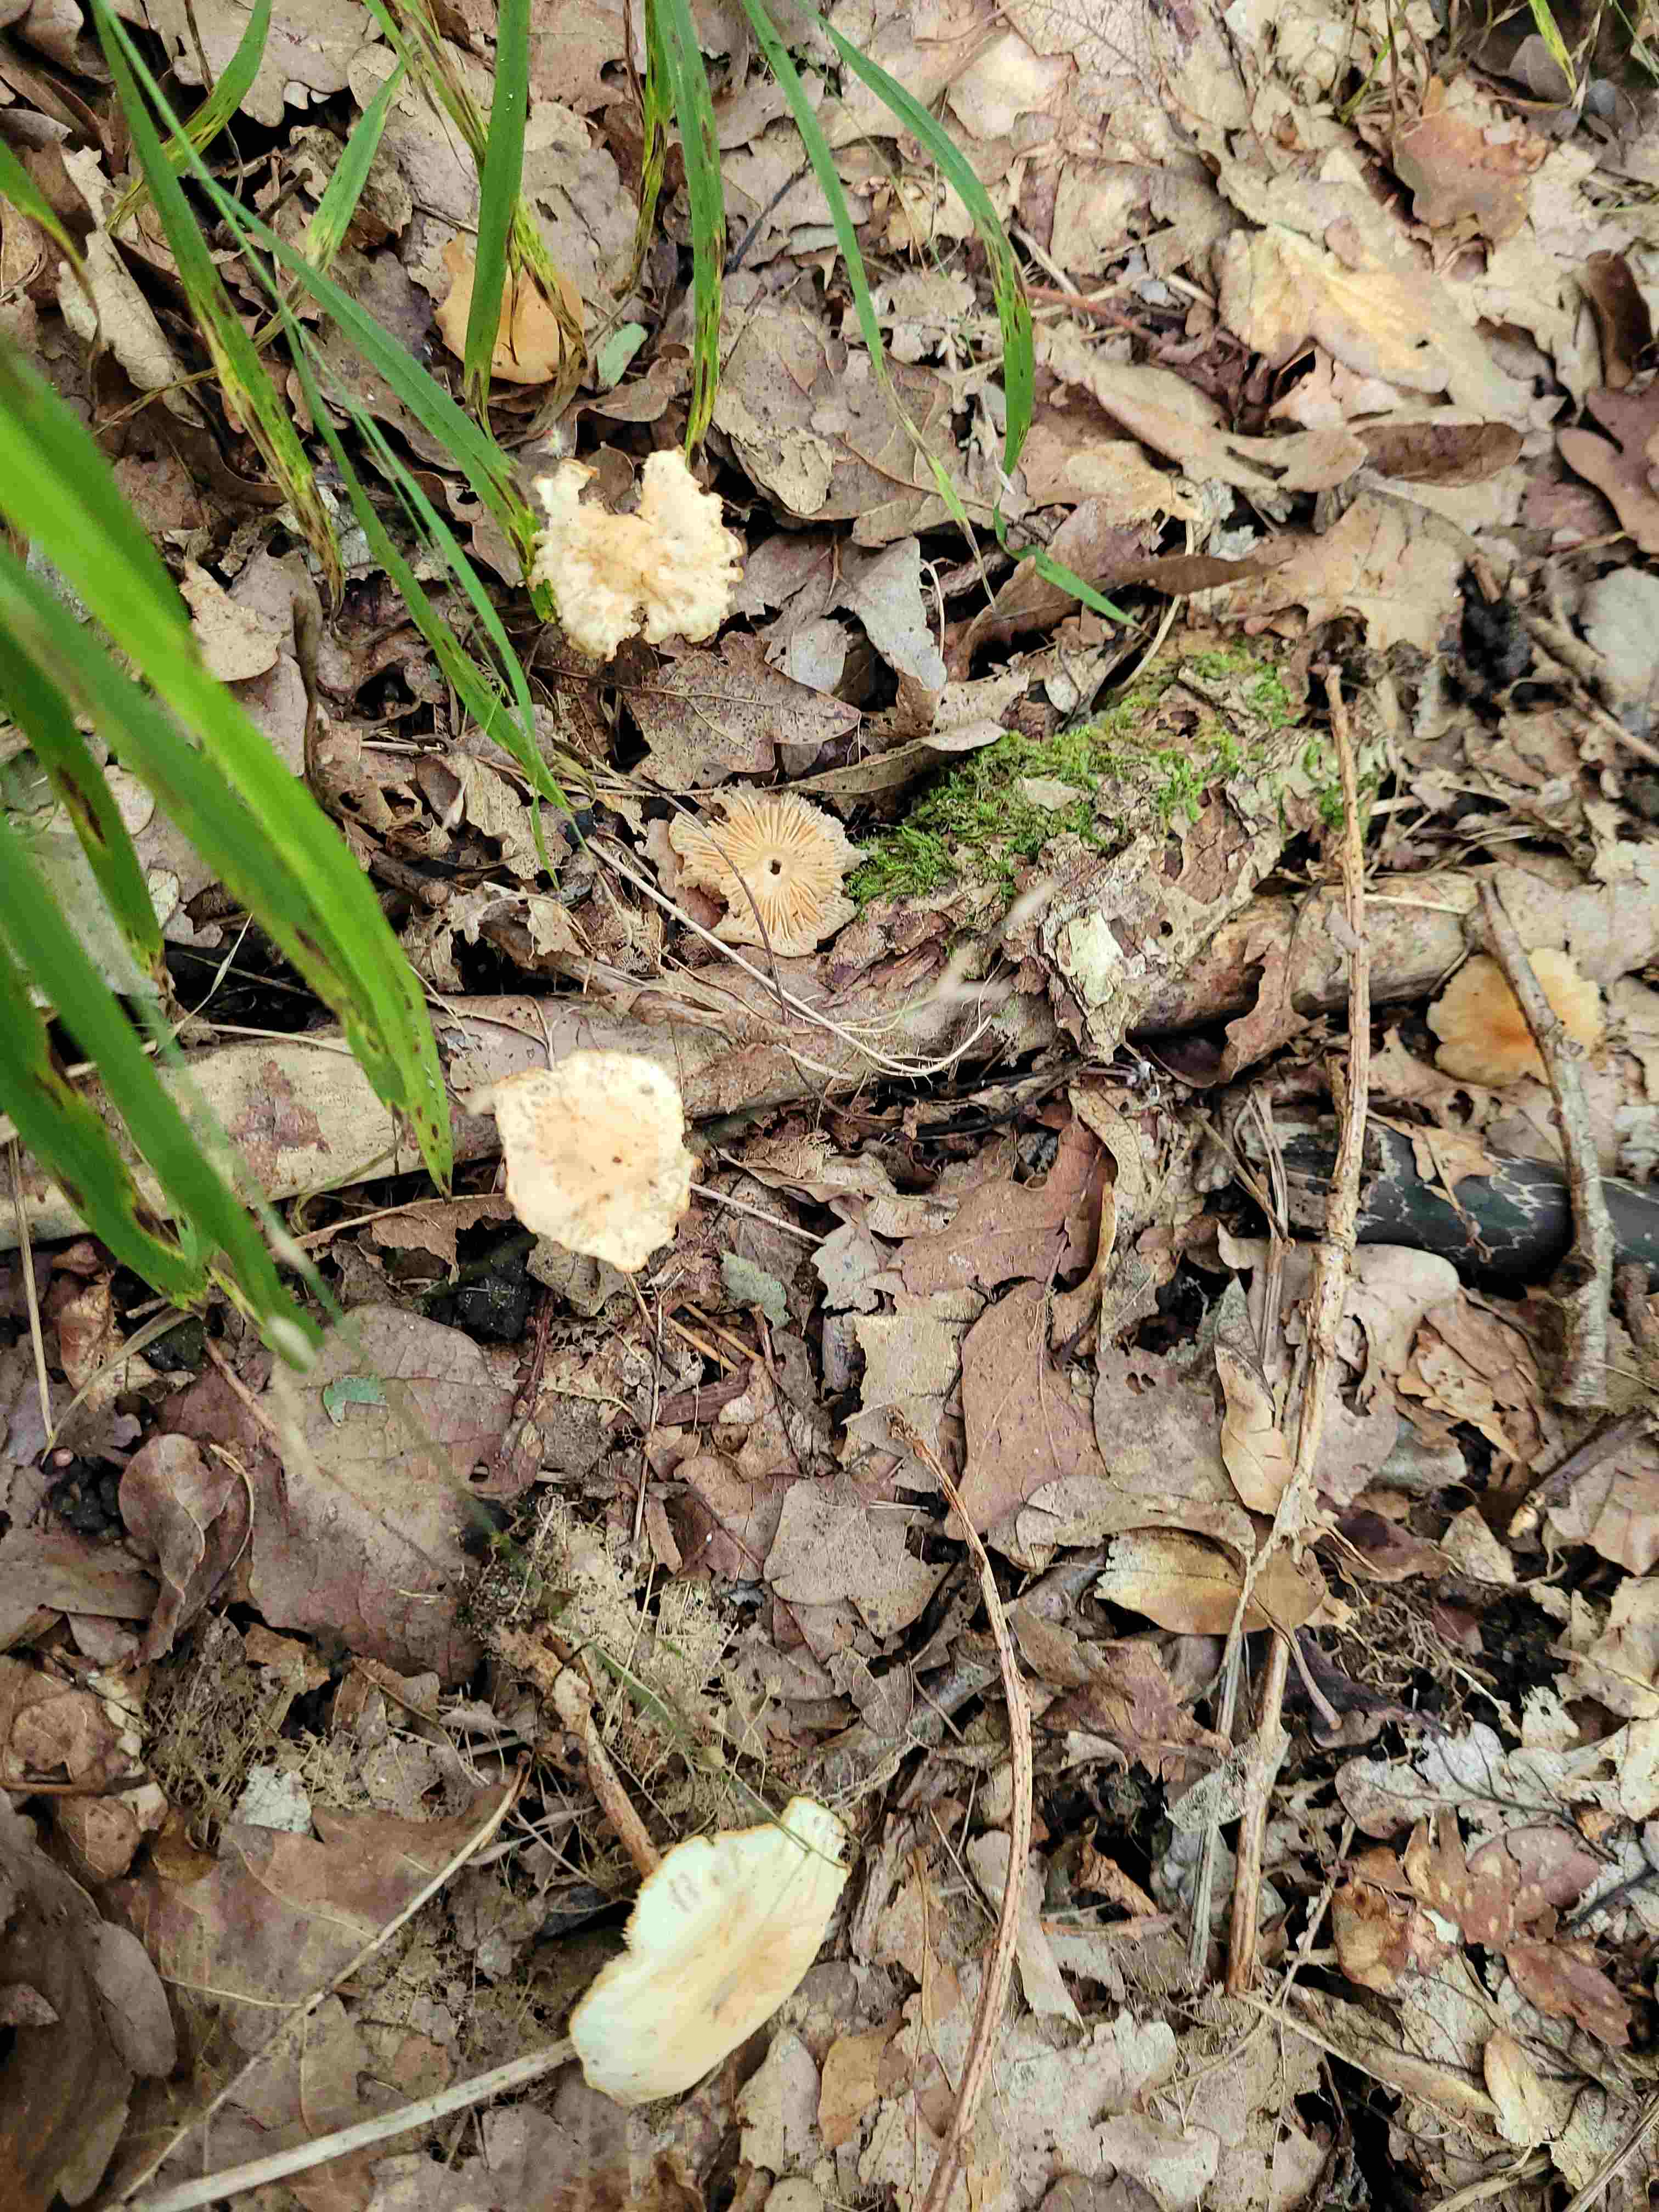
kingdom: Fungi
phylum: Basidiomycota
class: Agaricomycetes
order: Agaricales
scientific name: Agaricales
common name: champignonordenen
